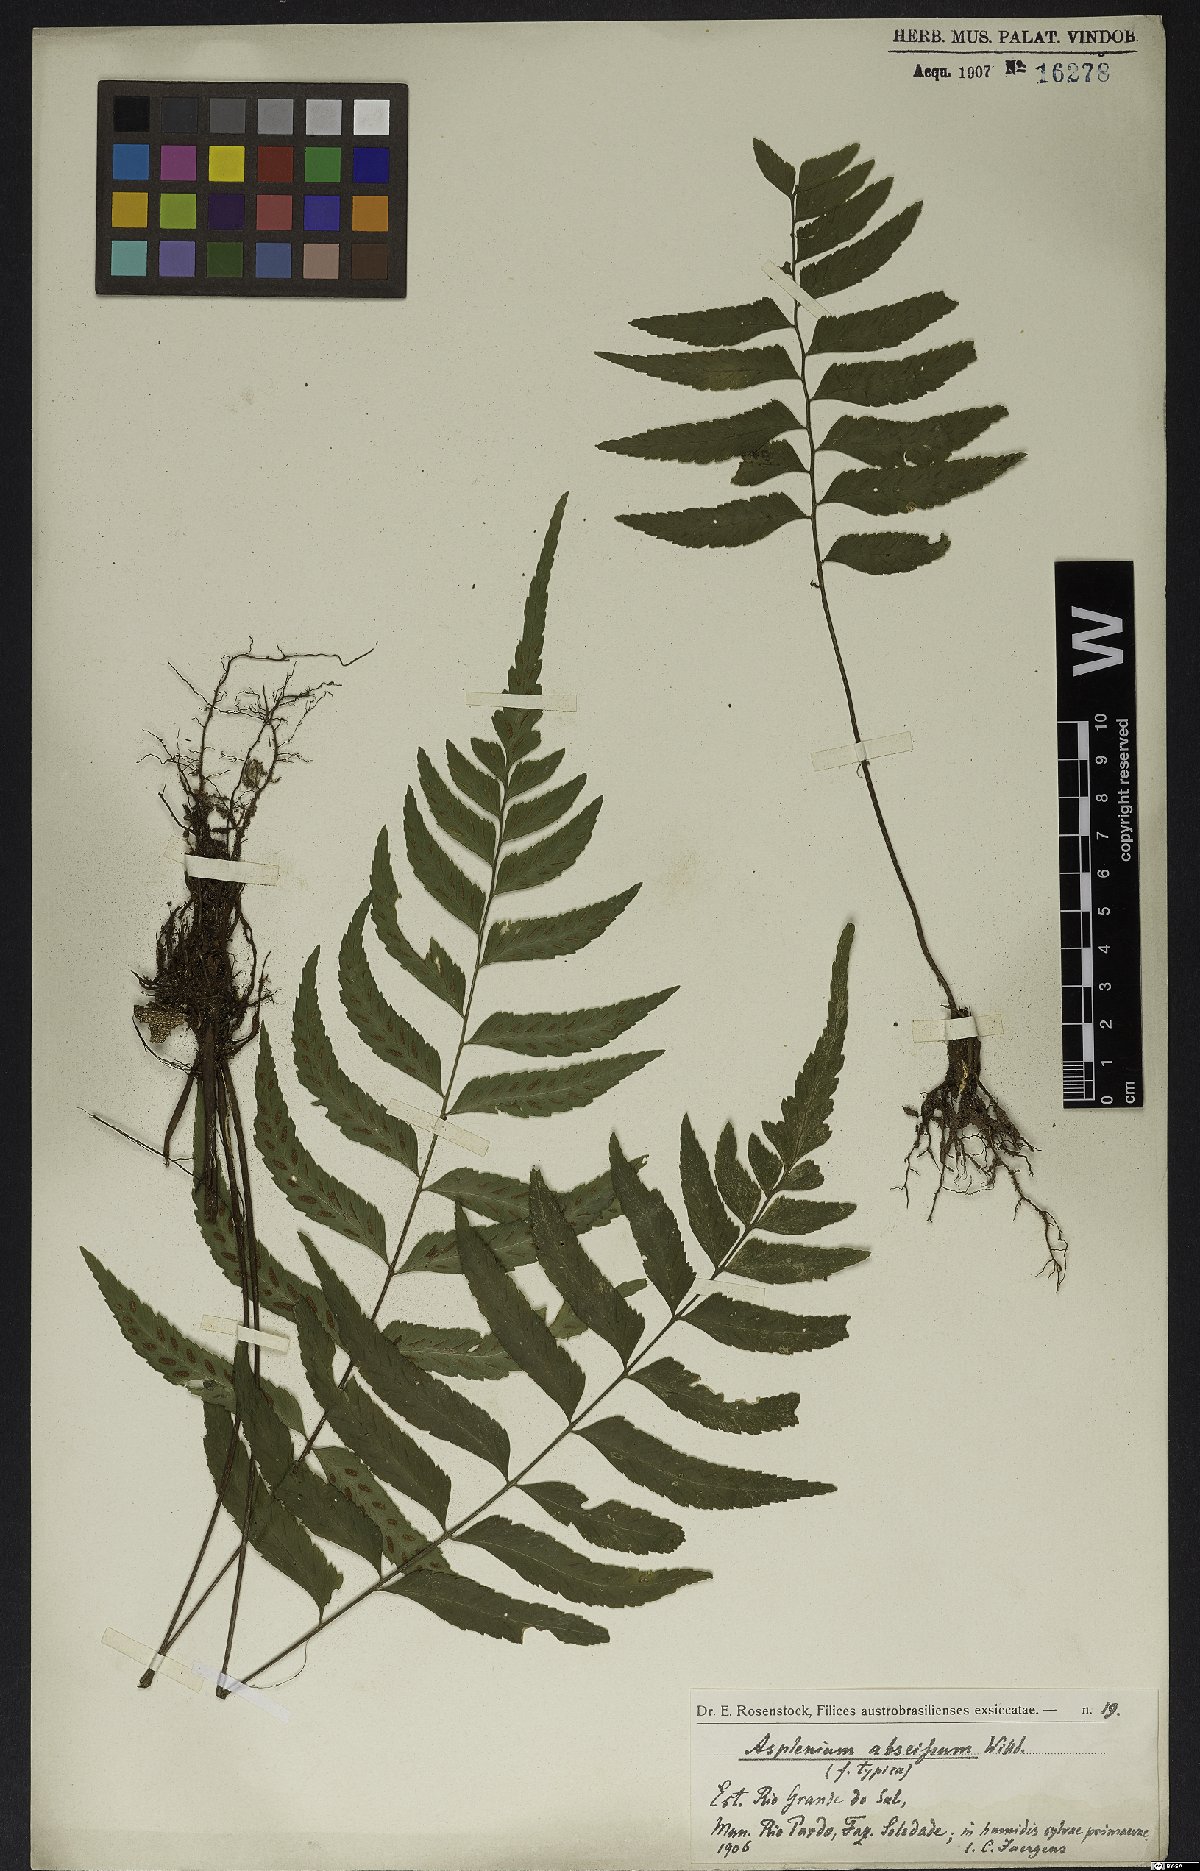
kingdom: Plantae
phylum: Tracheophyta
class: Polypodiopsida
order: Polypodiales
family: Aspleniaceae
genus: Asplenium
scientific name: Asplenium abscissum
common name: Cutleaf spleenwort
